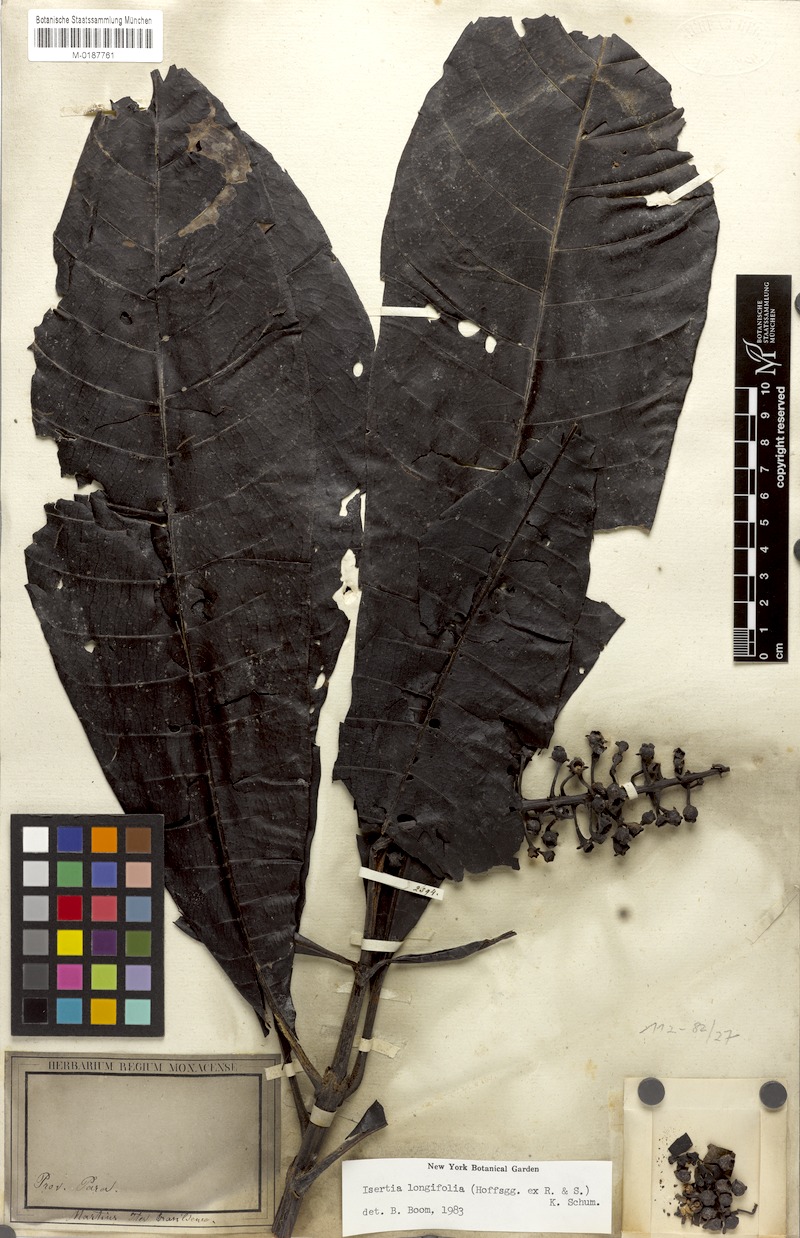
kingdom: Plantae
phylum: Tracheophyta
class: Magnoliopsida
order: Gentianales
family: Rubiaceae
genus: Isertia
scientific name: Isertia longifolia
